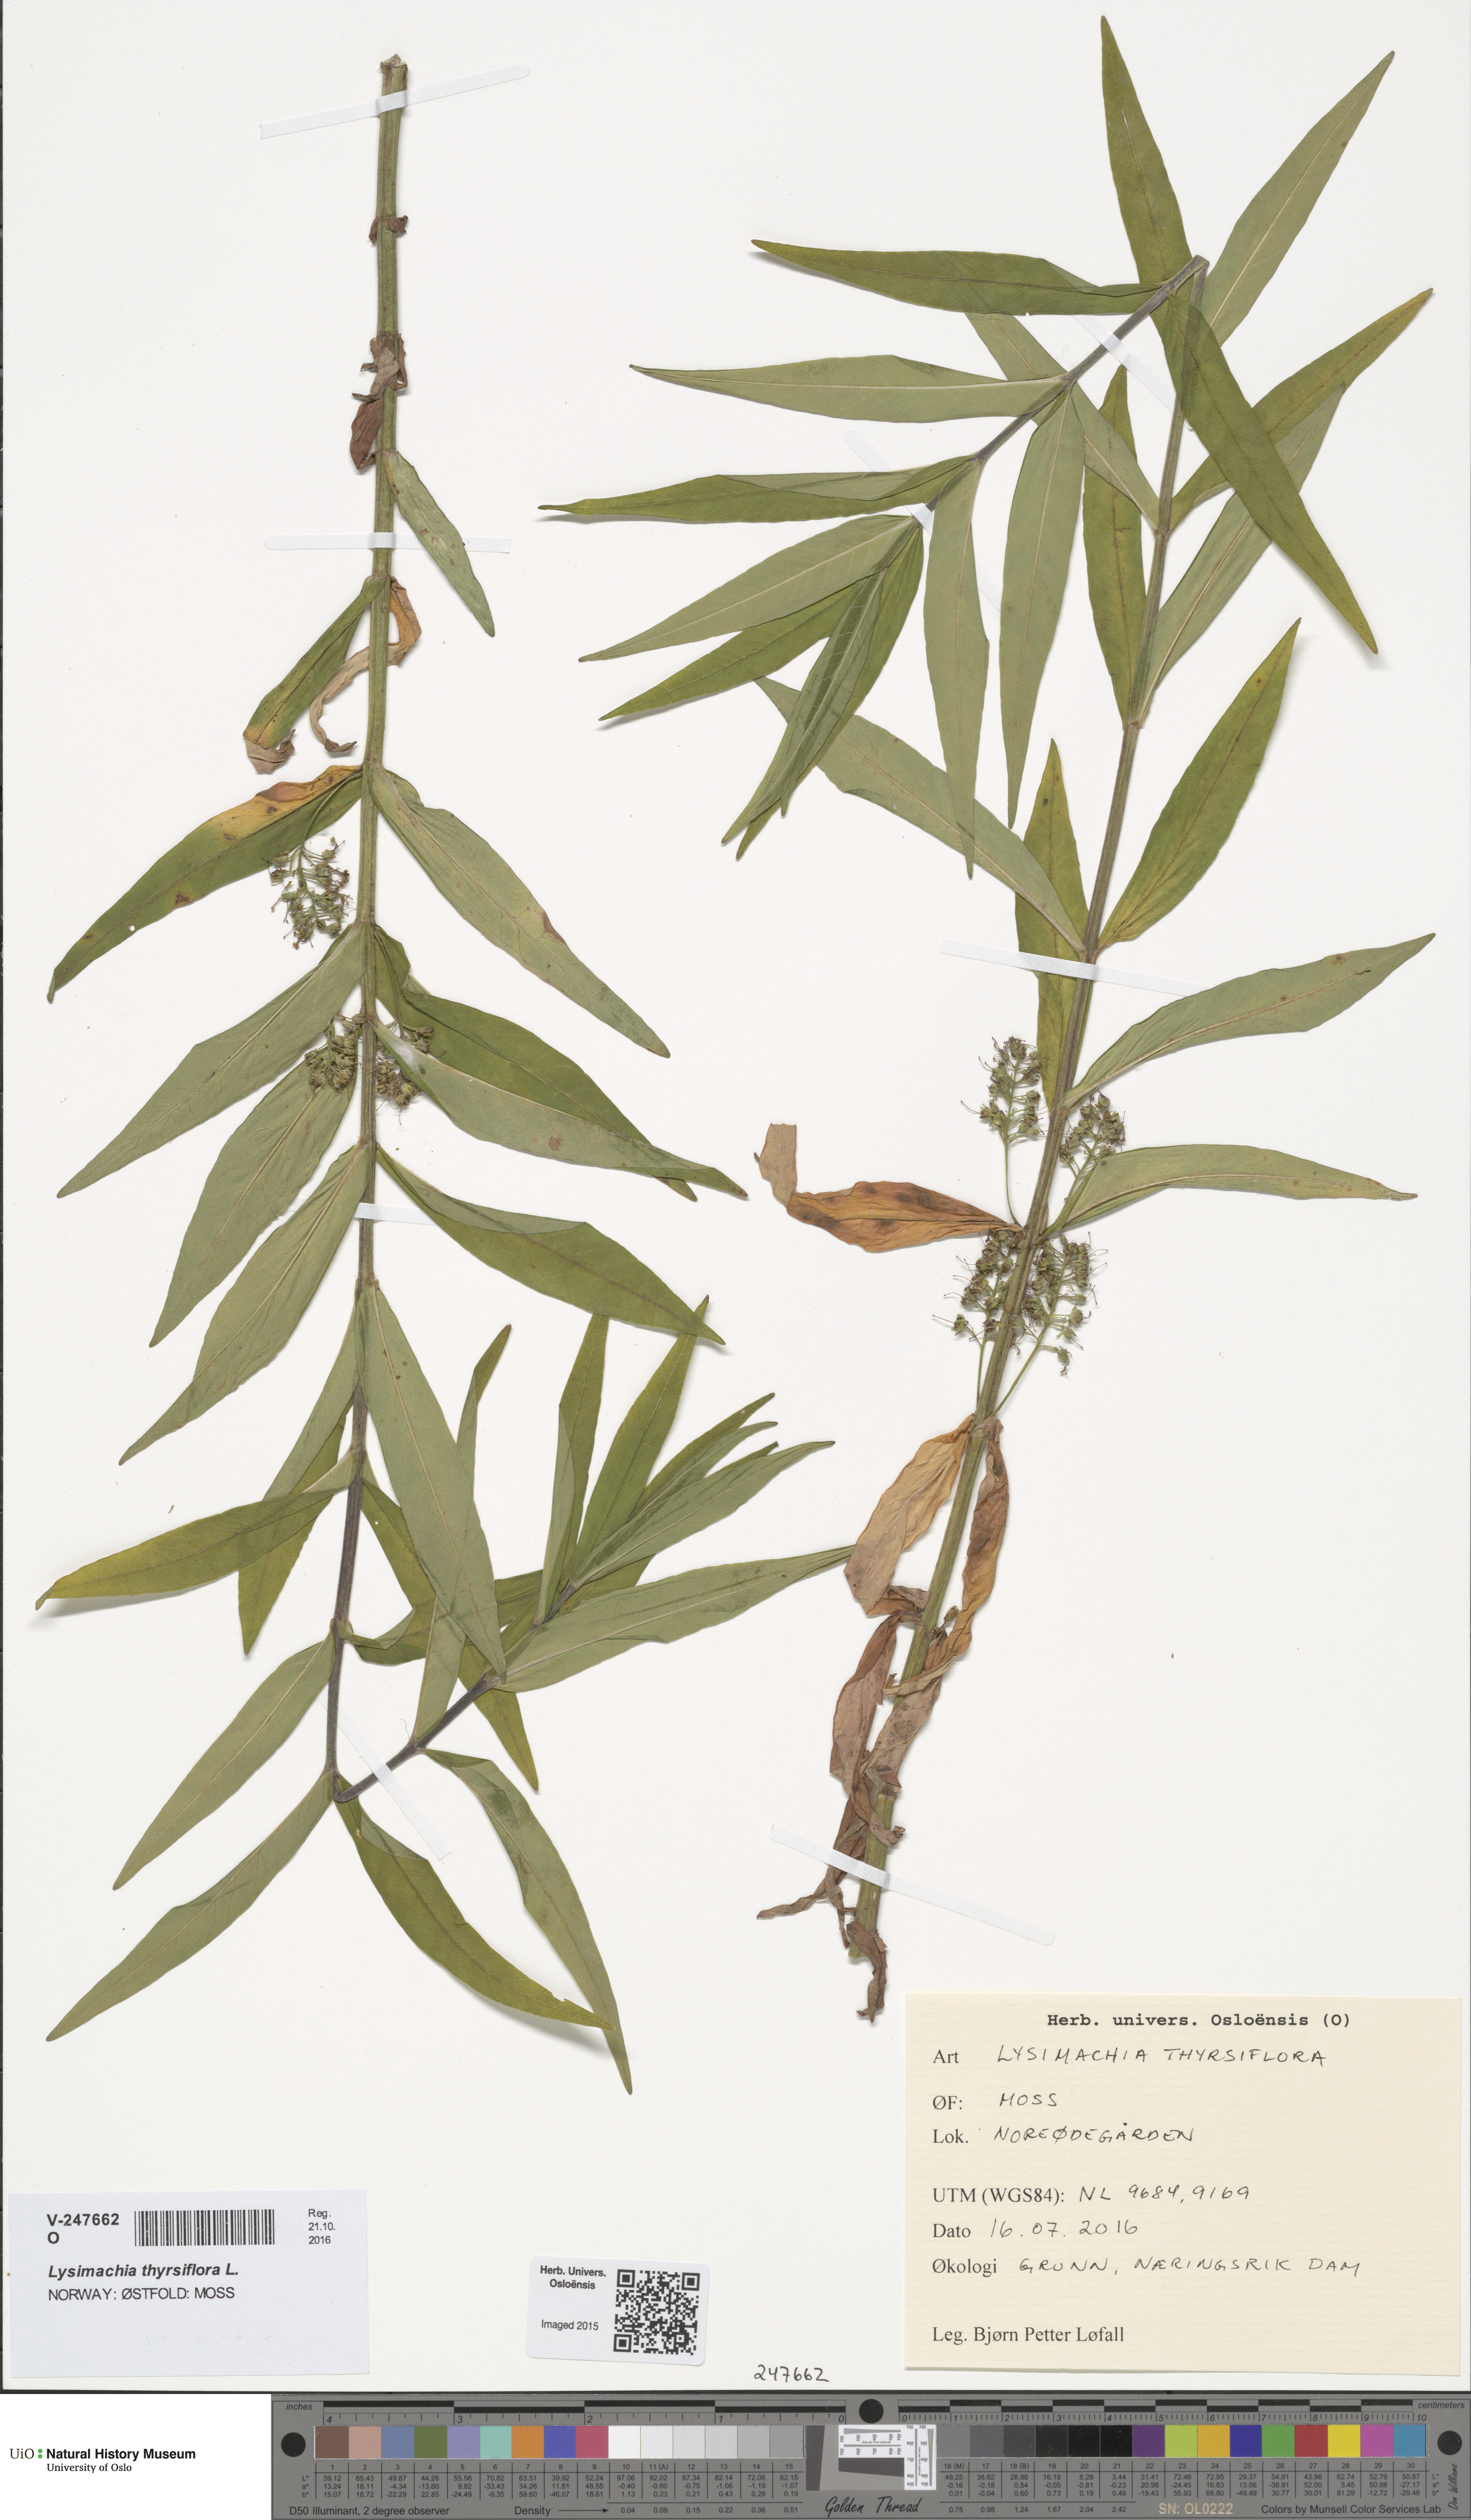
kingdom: Plantae
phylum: Tracheophyta
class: Magnoliopsida
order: Ericales
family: Primulaceae
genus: Lysimachia
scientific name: Lysimachia thyrsiflora
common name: Tufted loosestrife
